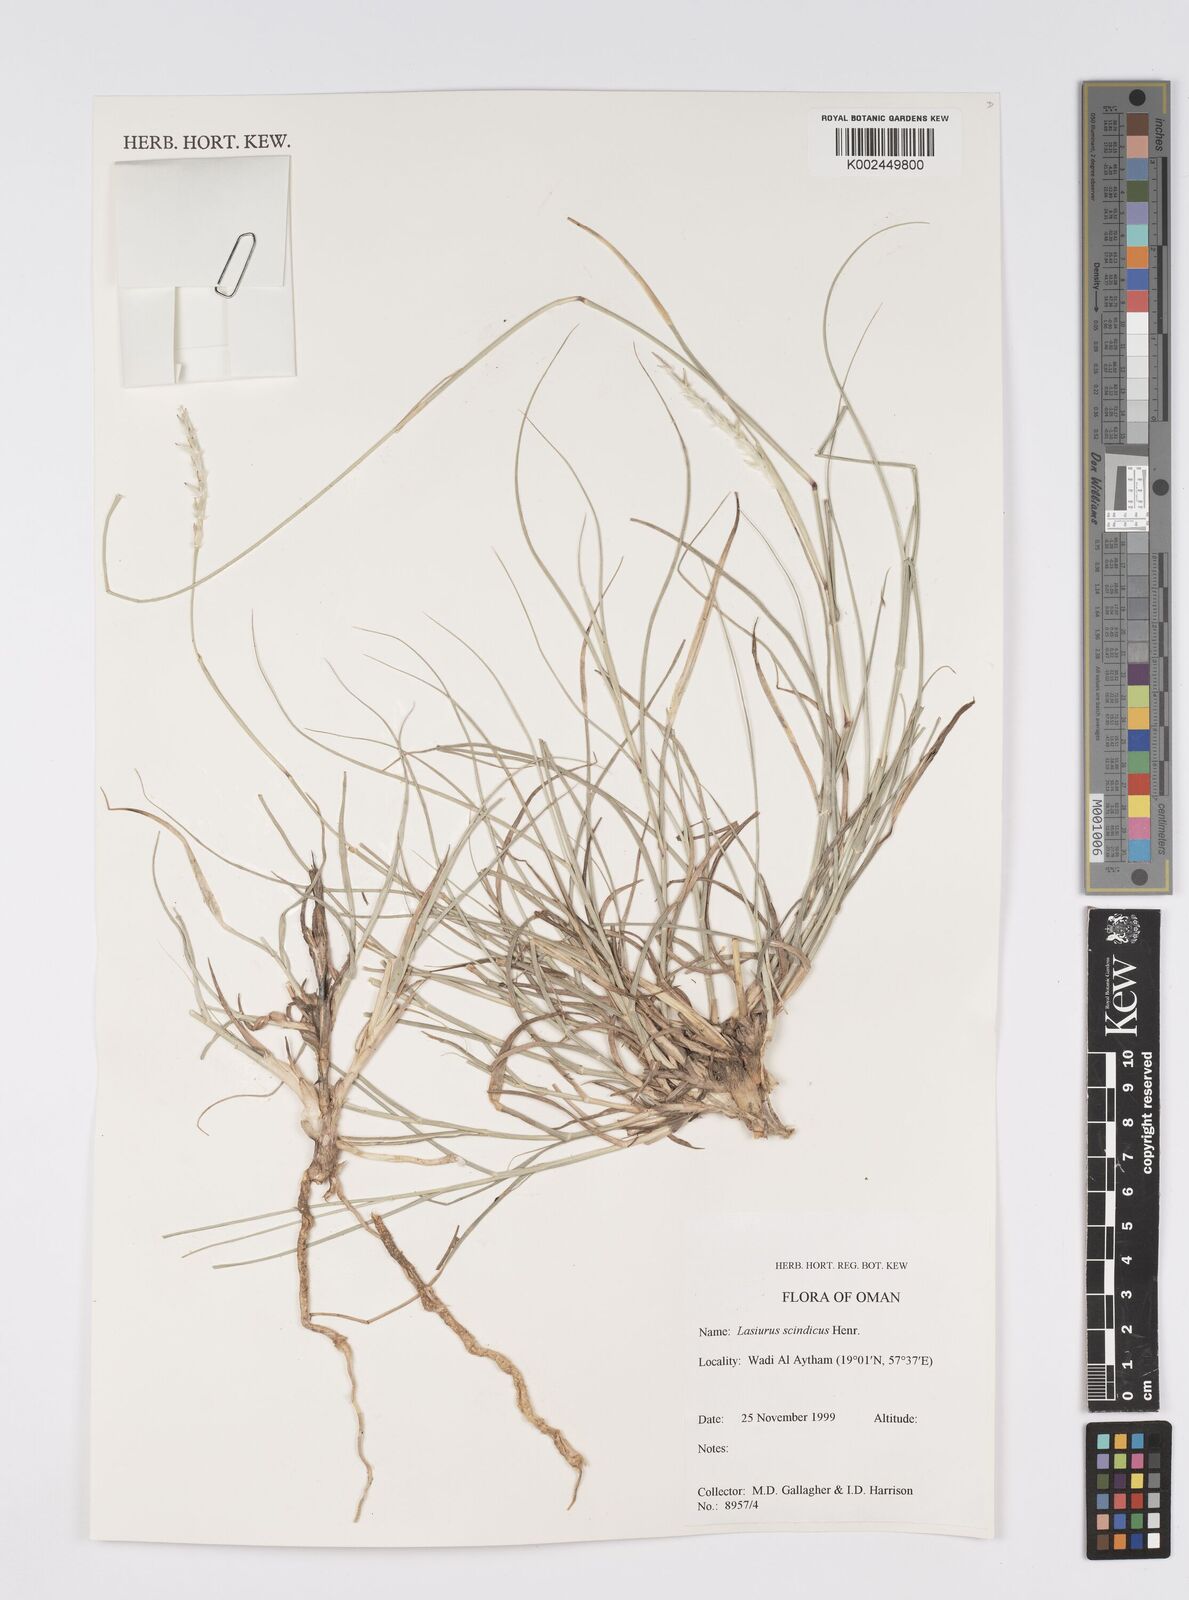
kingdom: Plantae
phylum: Tracheophyta
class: Liliopsida
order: Poales
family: Poaceae
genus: Lasiurus
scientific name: Lasiurus scindicus
